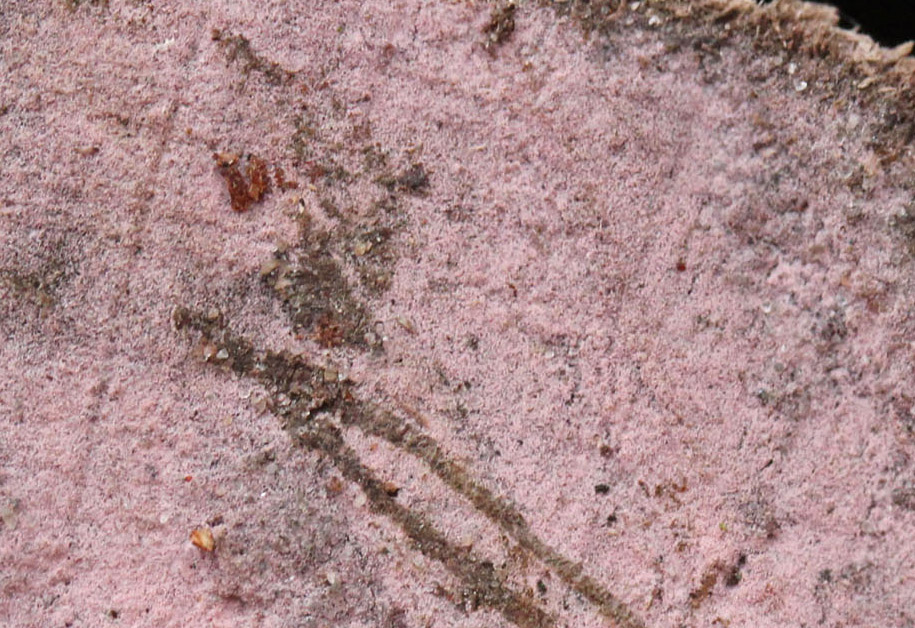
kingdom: Fungi
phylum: Basidiomycota
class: Agaricomycetes
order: Cantharellales
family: Tulasnellaceae
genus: Tulasnella
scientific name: Tulasnella violea
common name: violet ballonhinde
